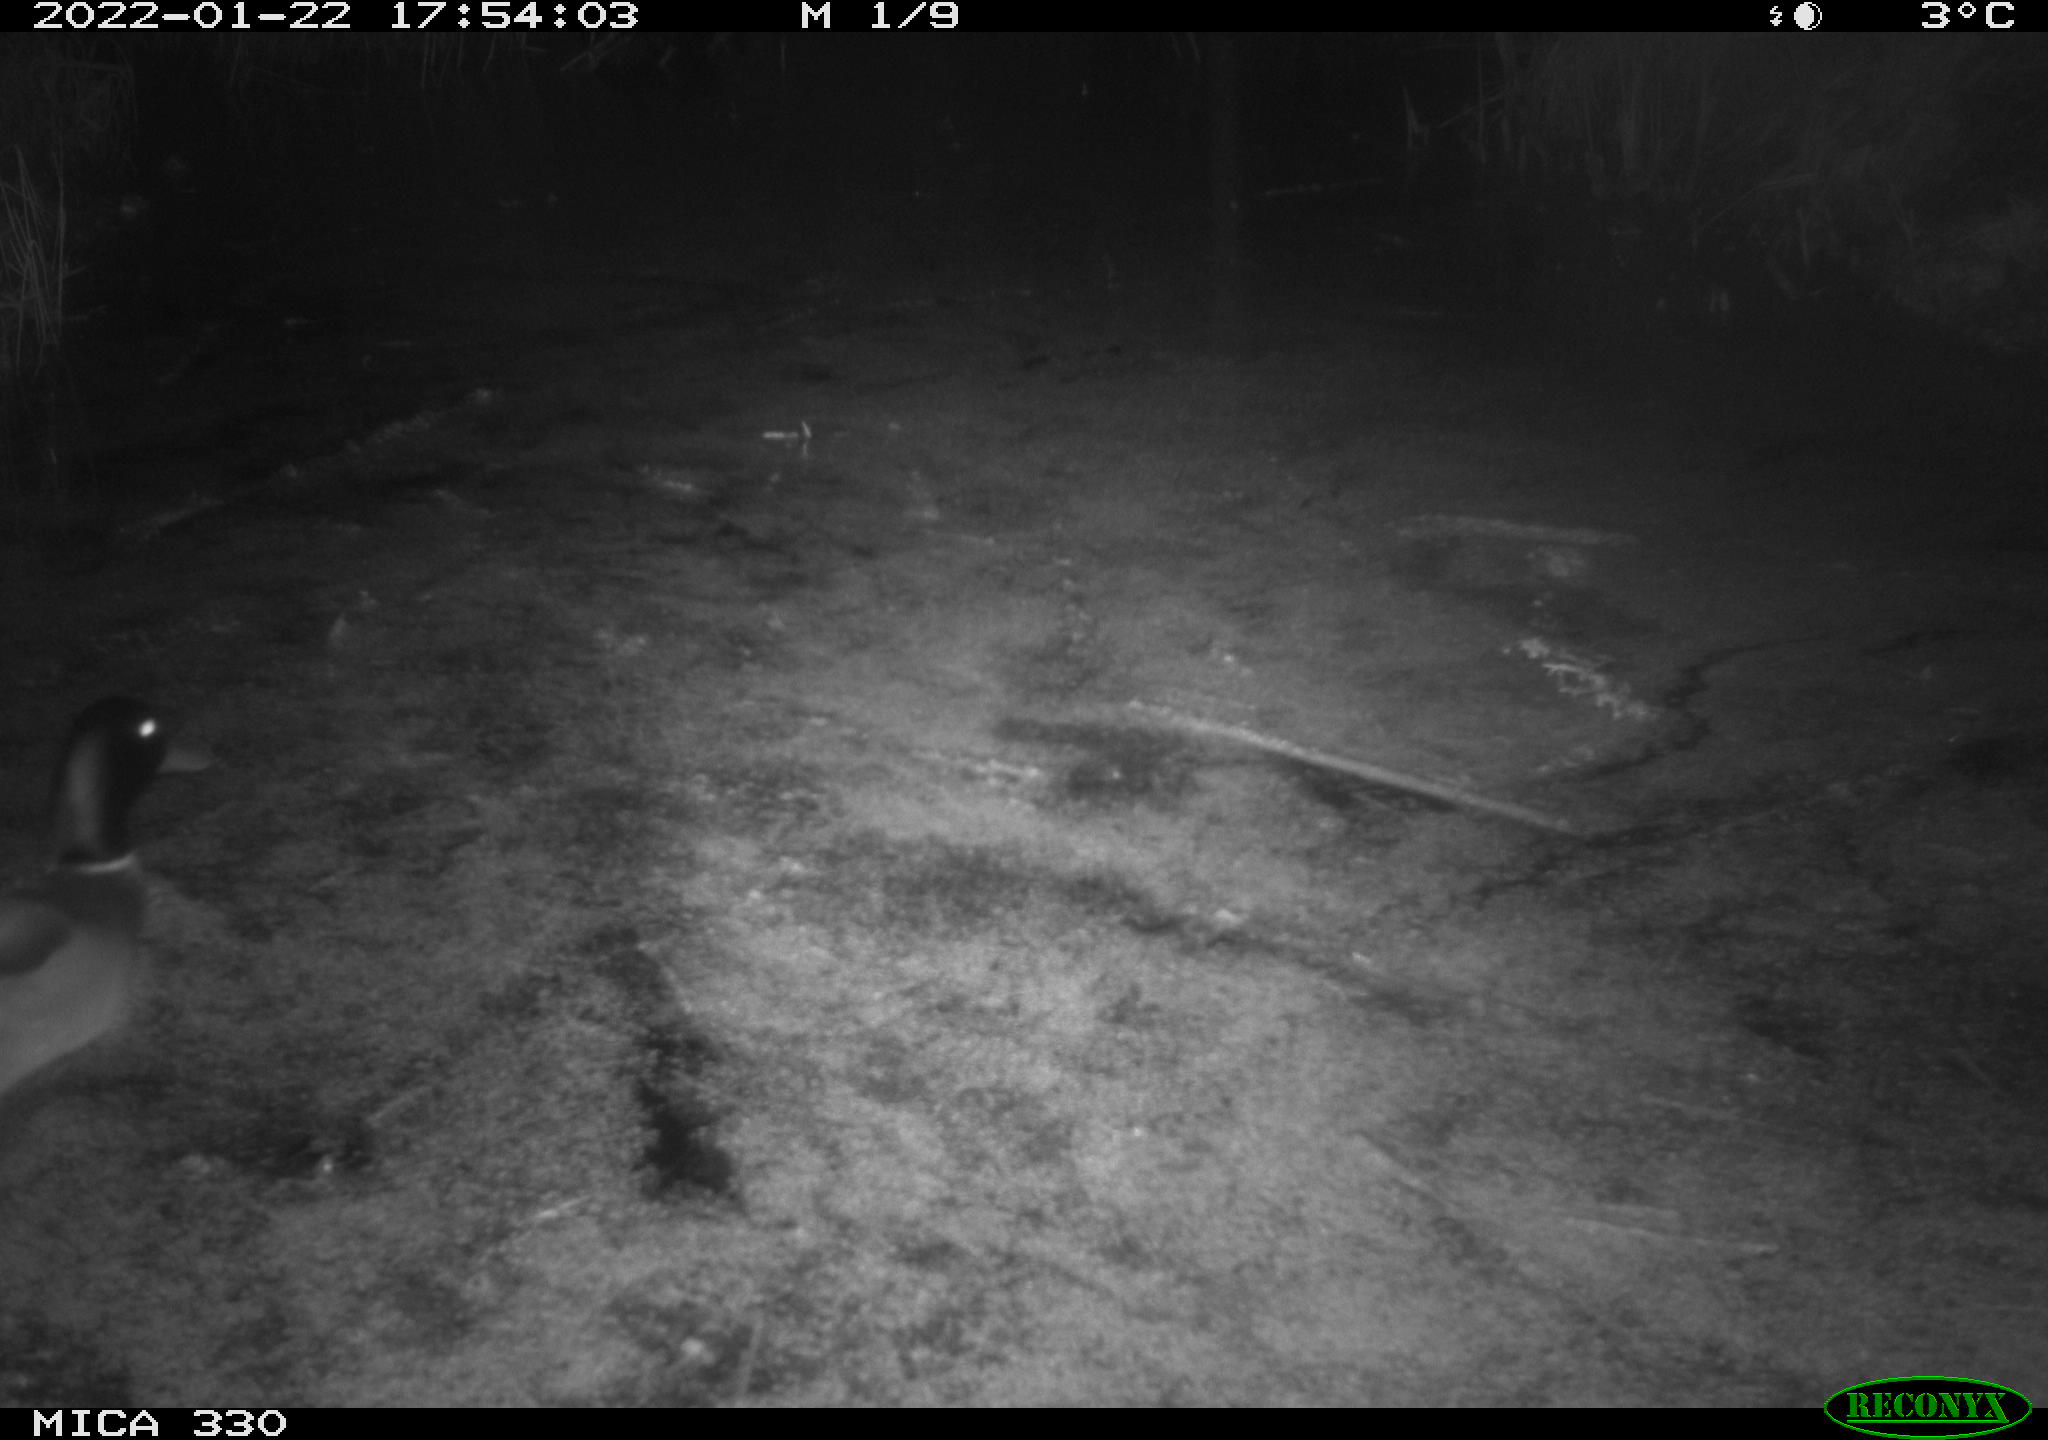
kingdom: Animalia
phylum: Chordata
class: Aves
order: Anseriformes
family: Anatidae
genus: Anas
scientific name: Anas platyrhynchos
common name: Mallard
